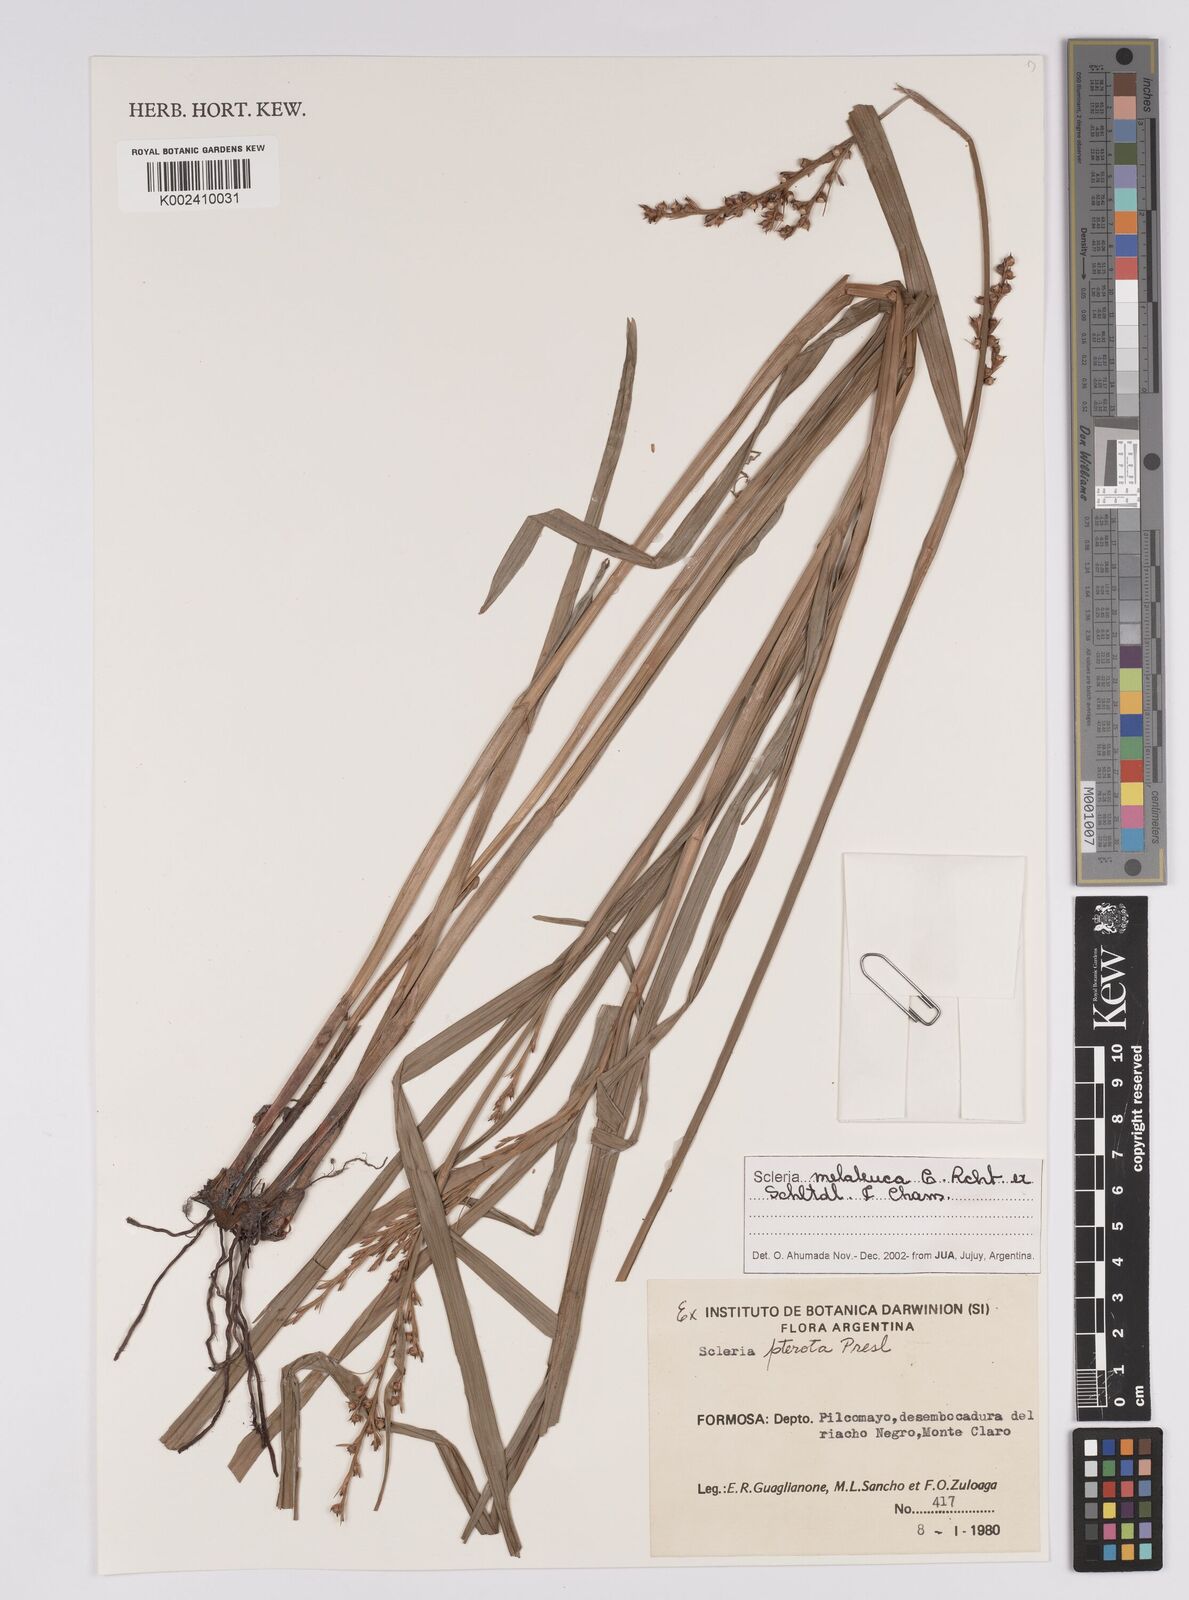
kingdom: Plantae
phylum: Tracheophyta
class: Liliopsida
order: Poales
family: Cyperaceae
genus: Scleria
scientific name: Scleria gaertneri
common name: Cortadera blanca
